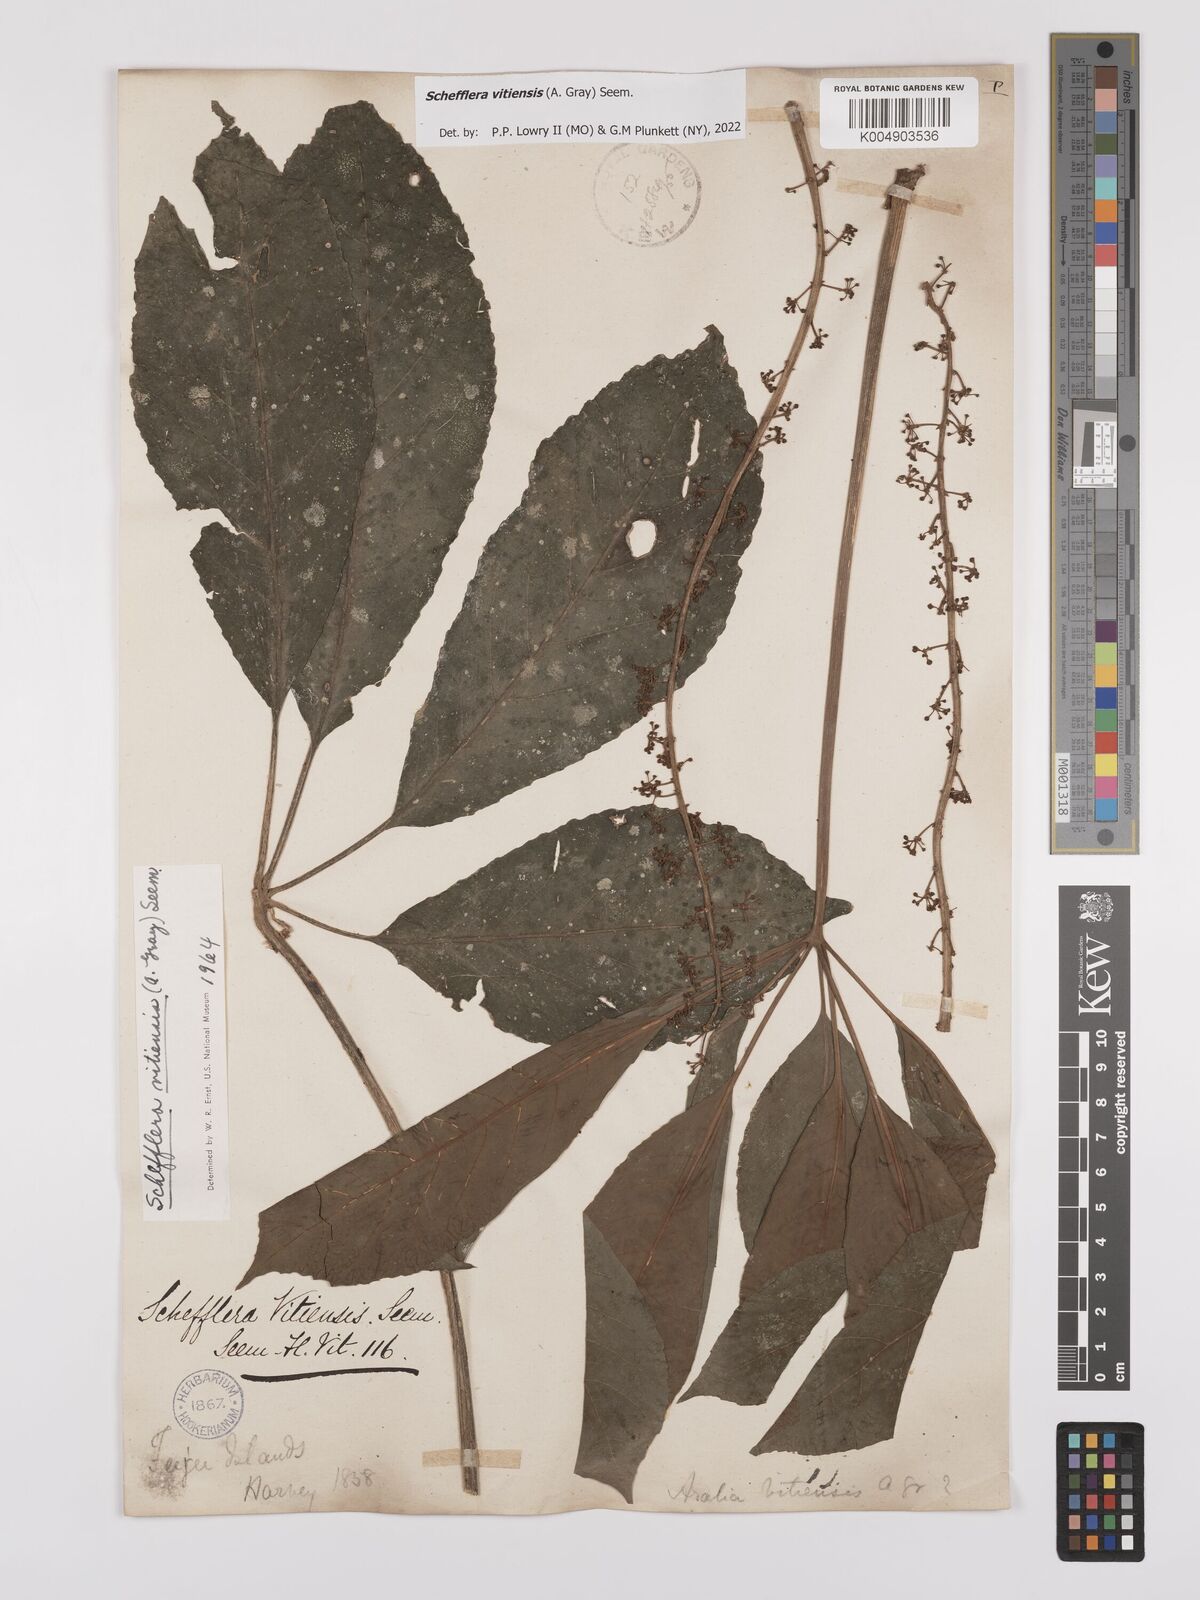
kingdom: Plantae
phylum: Tracheophyta
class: Magnoliopsida
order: Apiales
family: Araliaceae
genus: Schefflera
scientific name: Schefflera vitiensis
